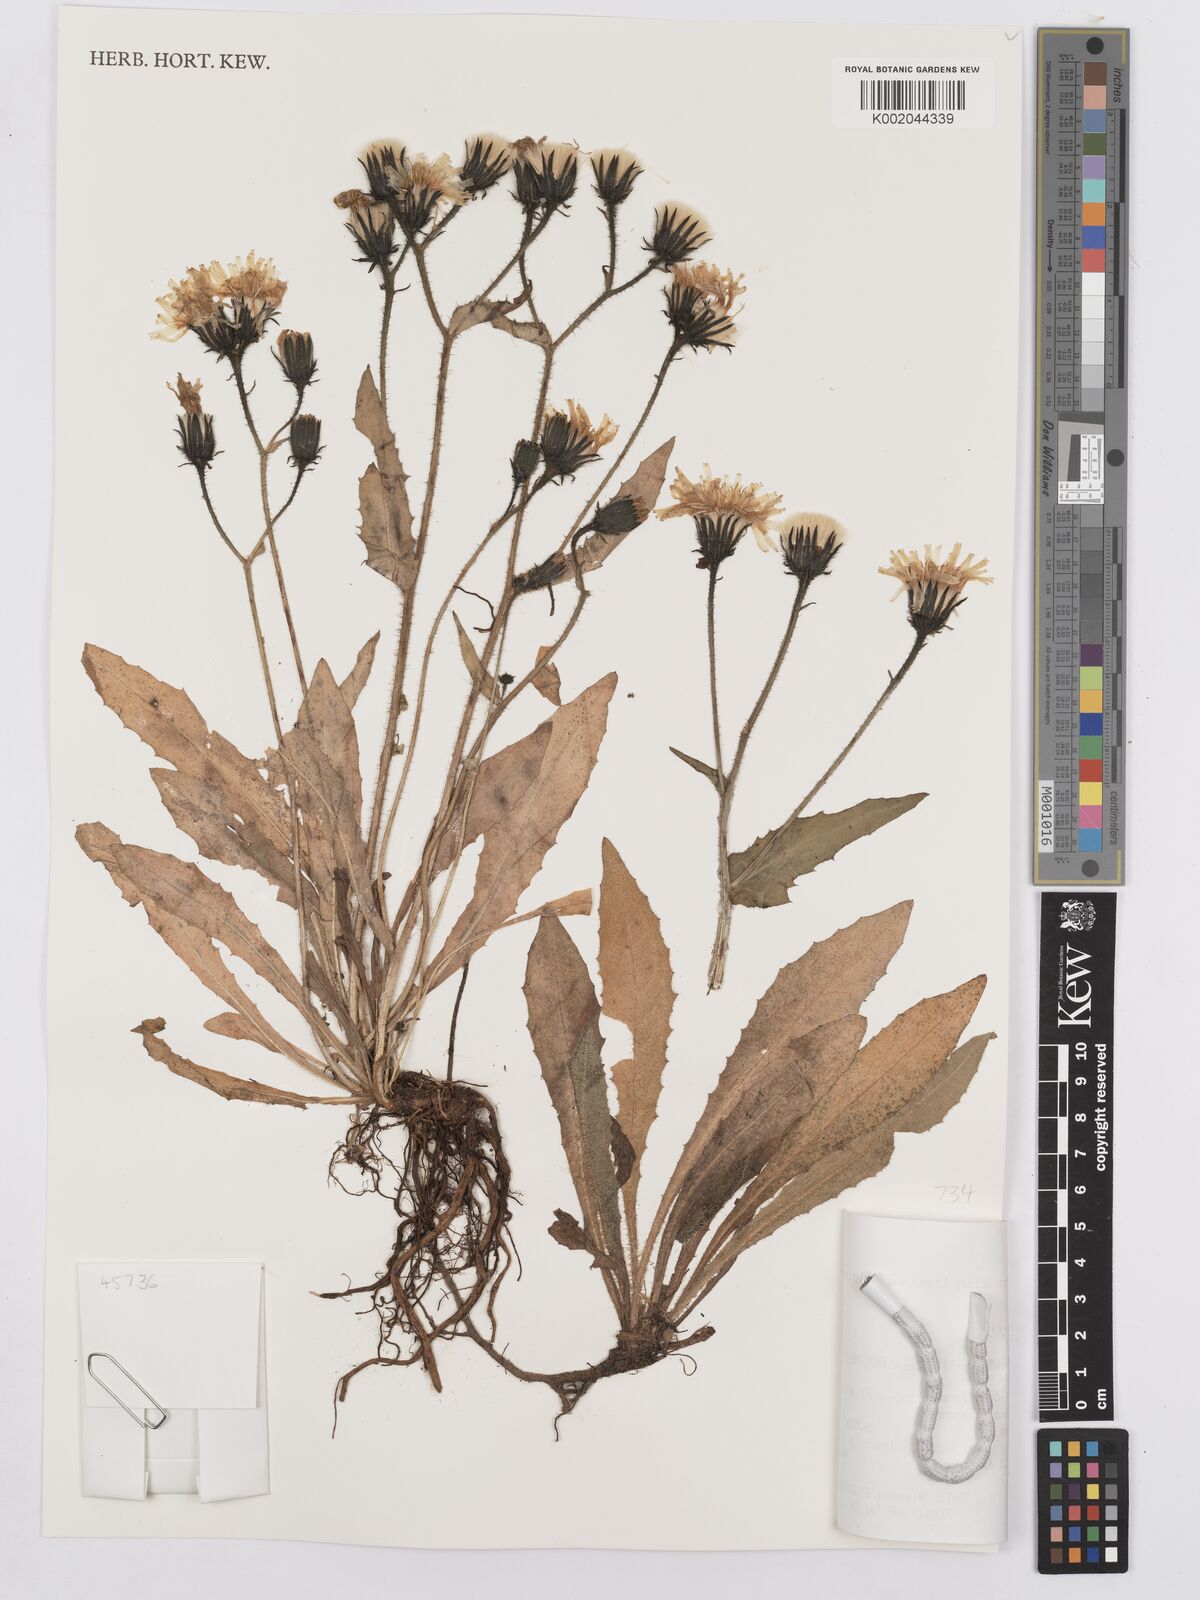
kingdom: Plantae
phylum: Tracheophyta
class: Magnoliopsida
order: Asterales
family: Asteraceae
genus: Picris
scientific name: Picris hieracioides
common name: Hawkweed oxtongue
